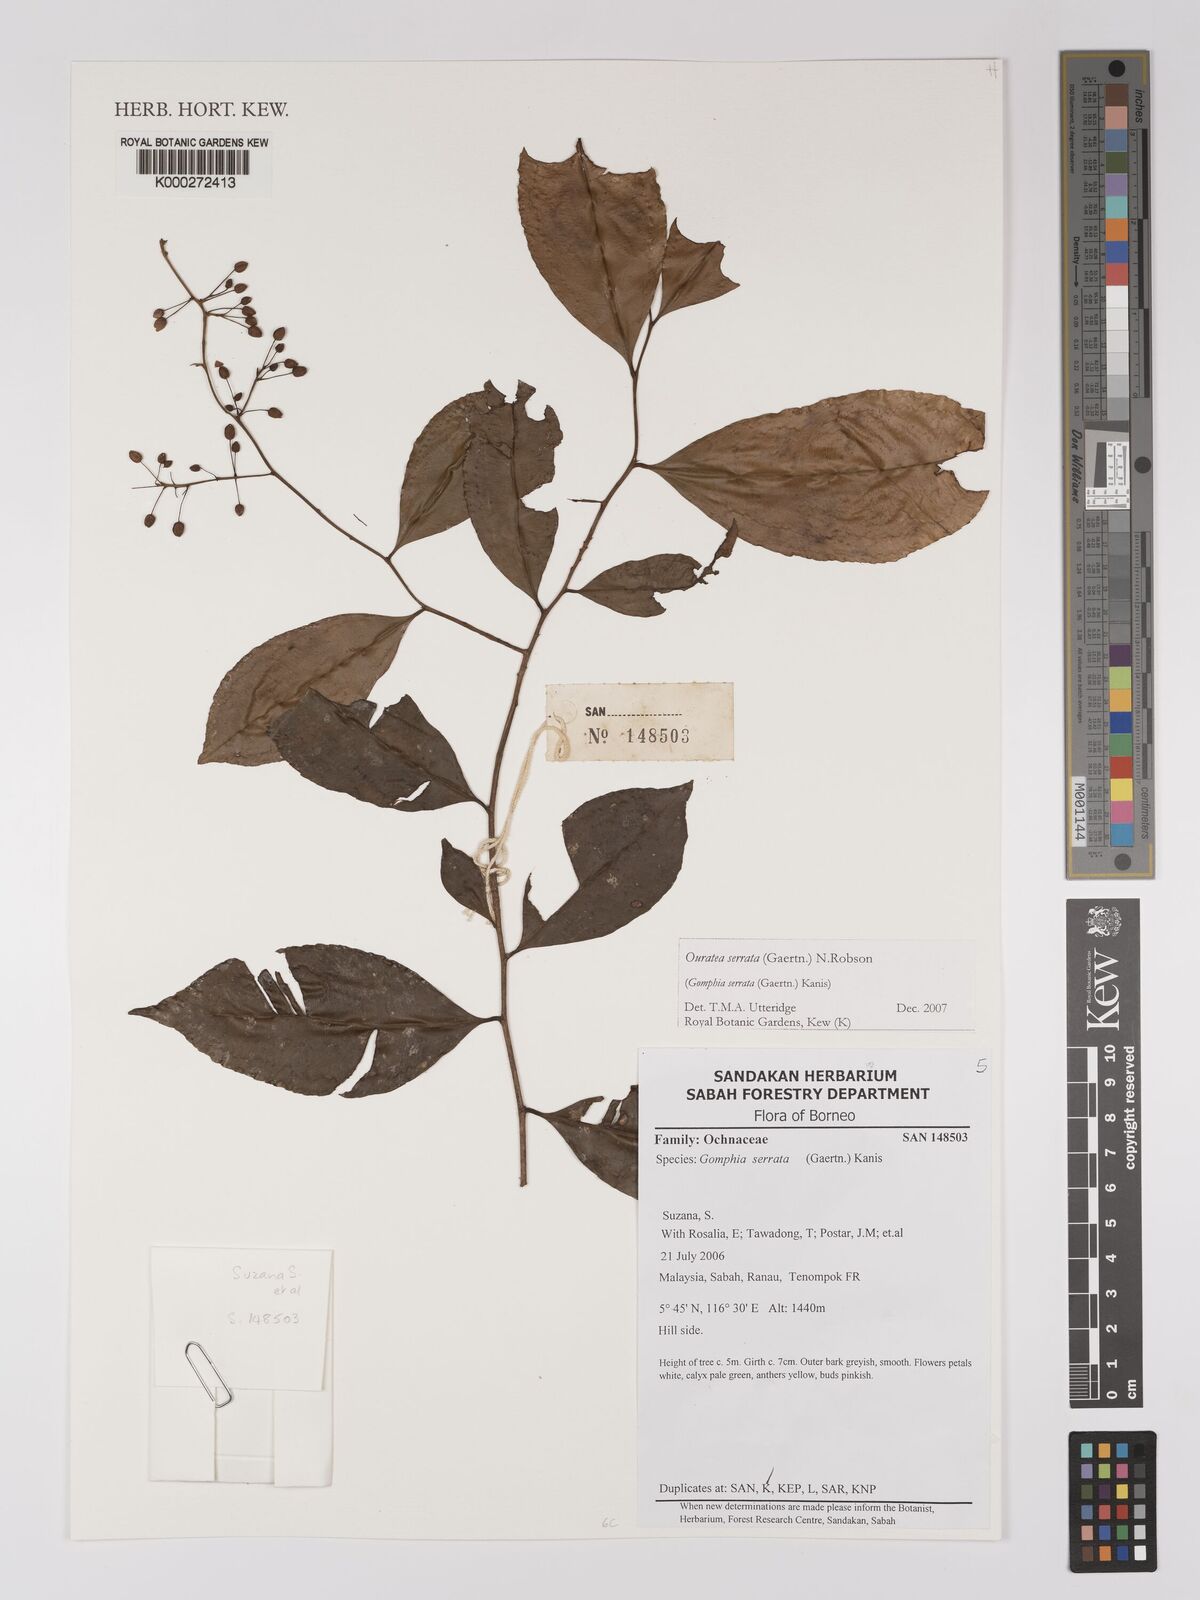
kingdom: Plantae
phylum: Tracheophyta
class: Magnoliopsida
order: Malpighiales
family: Ochnaceae
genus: Gomphia
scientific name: Gomphia serrata
